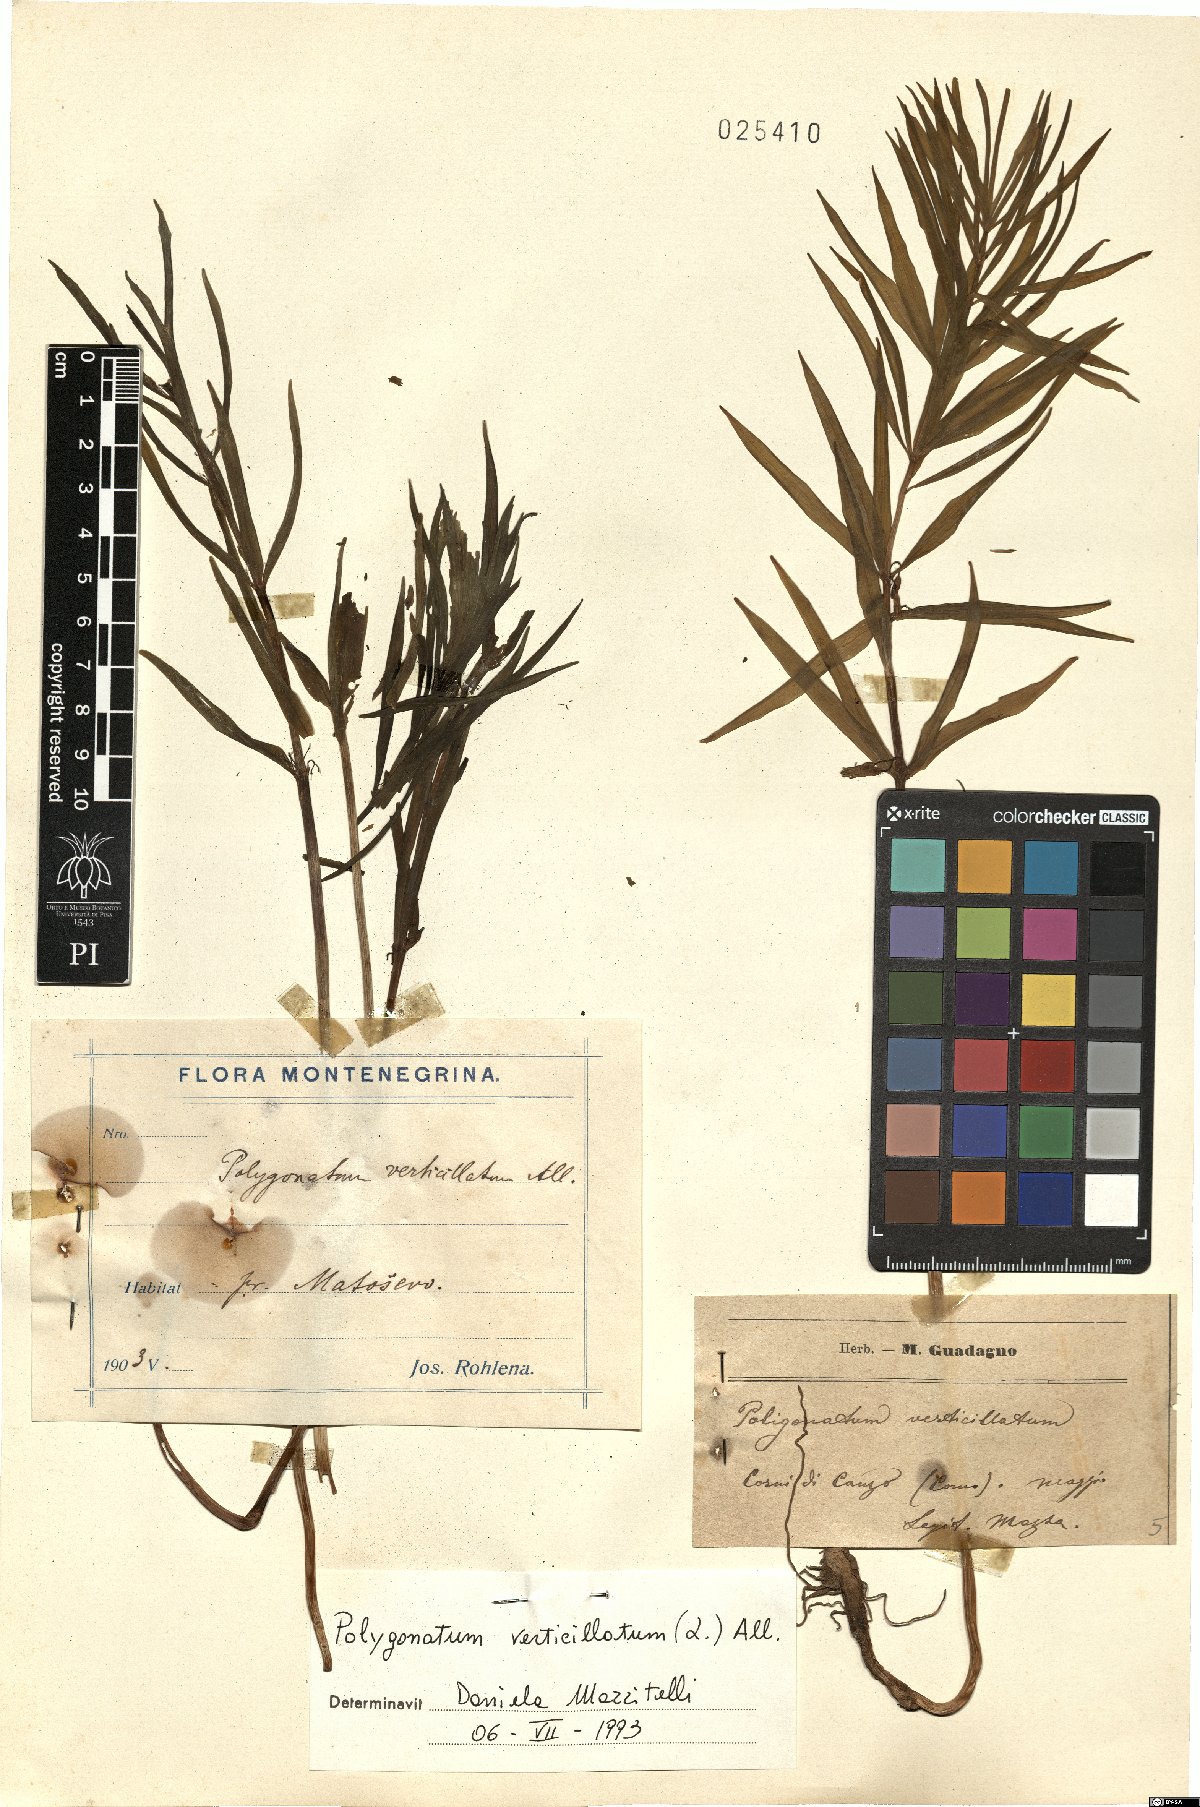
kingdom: Plantae
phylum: Tracheophyta
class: Liliopsida
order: Asparagales
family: Asparagaceae
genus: Polygonatum
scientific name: Polygonatum verticillatum
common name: Whorled solomon's-seal
